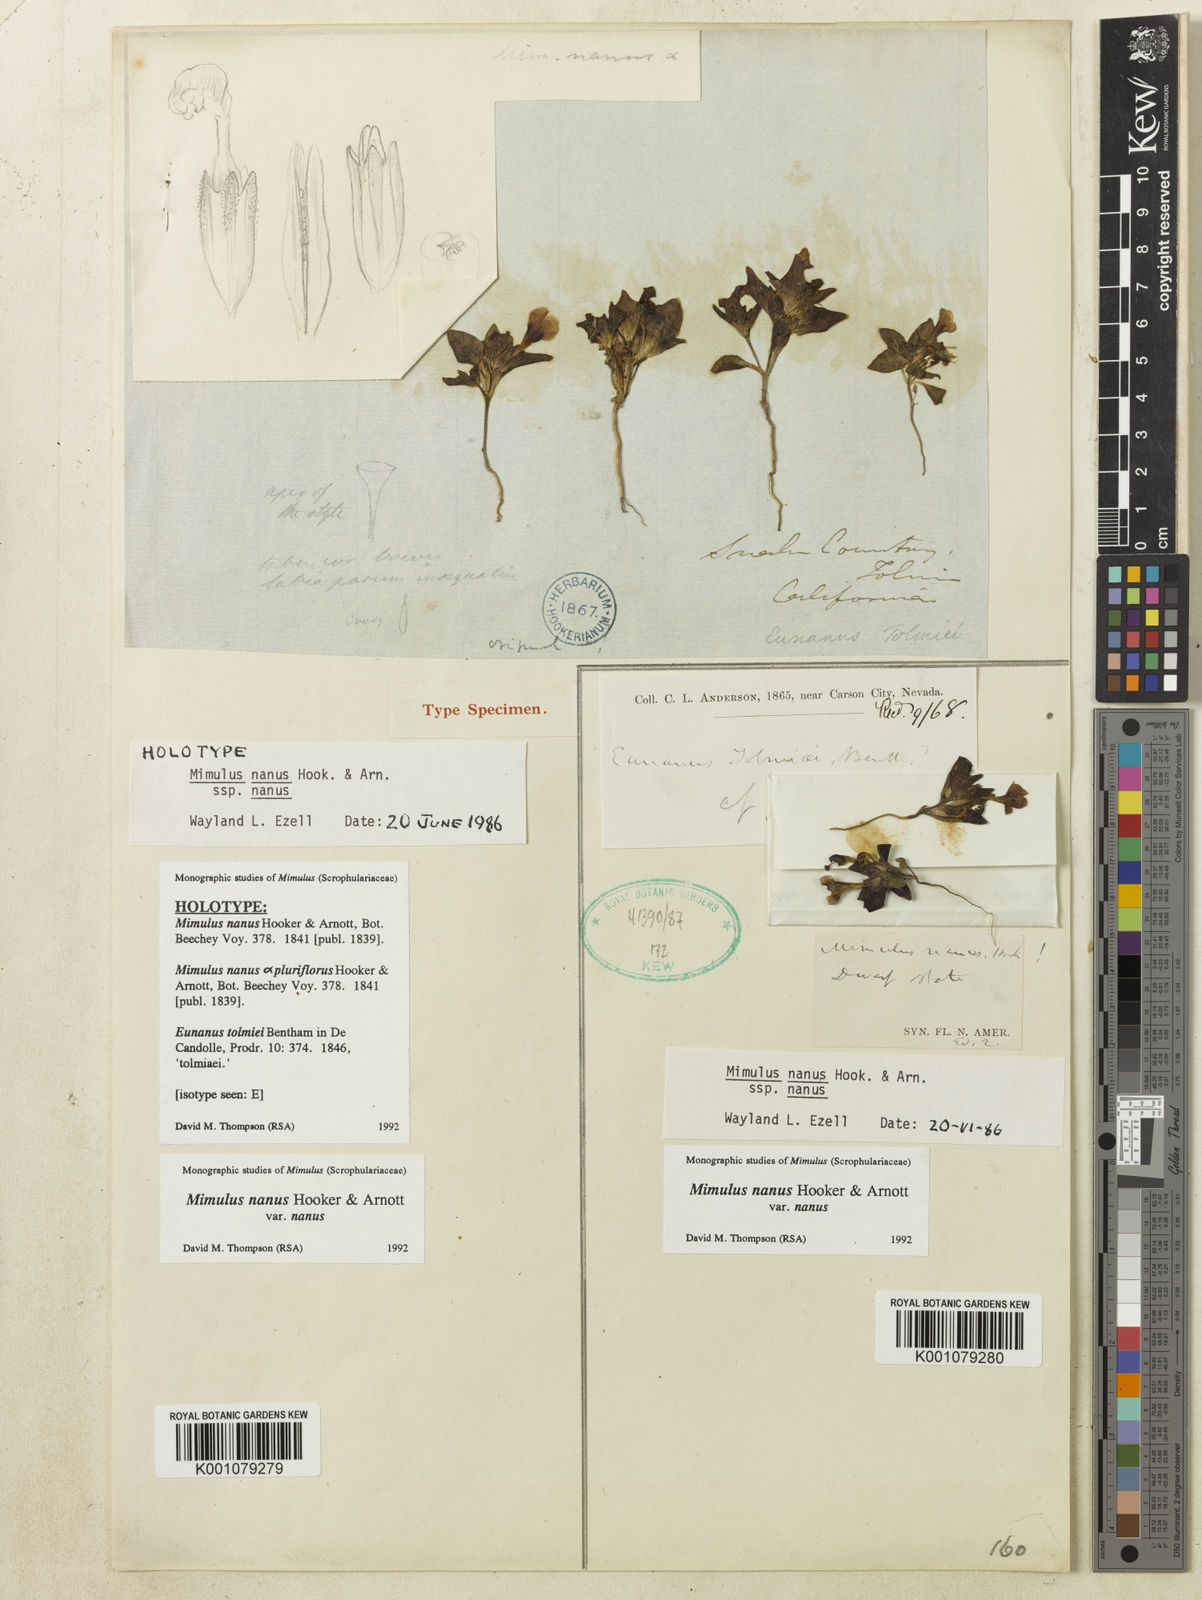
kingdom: Plantae
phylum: Tracheophyta
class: Magnoliopsida
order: Lamiales
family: Phrymaceae
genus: Diplacus
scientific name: Diplacus nanus
